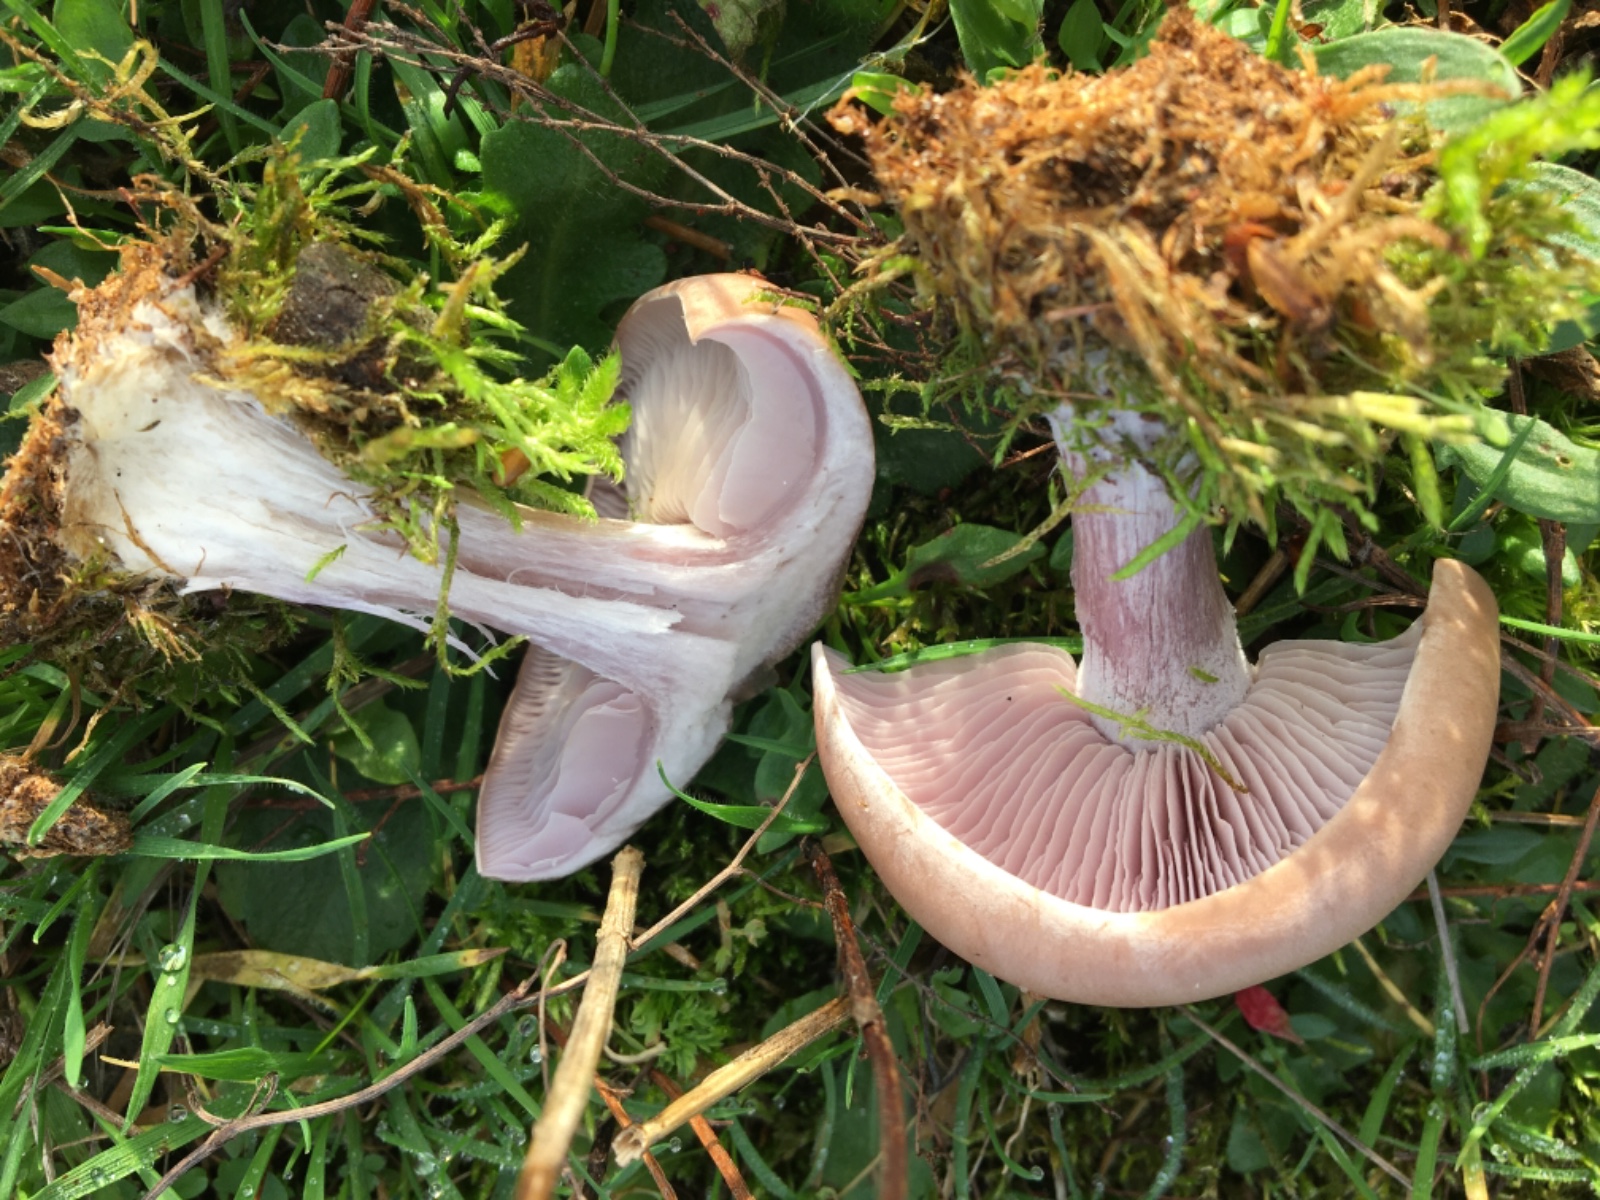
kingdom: Fungi
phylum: Basidiomycota
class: Agaricomycetes
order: Agaricales
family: Tricholomataceae
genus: Lepista
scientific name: Lepista personata
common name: bleg hekseringshat
